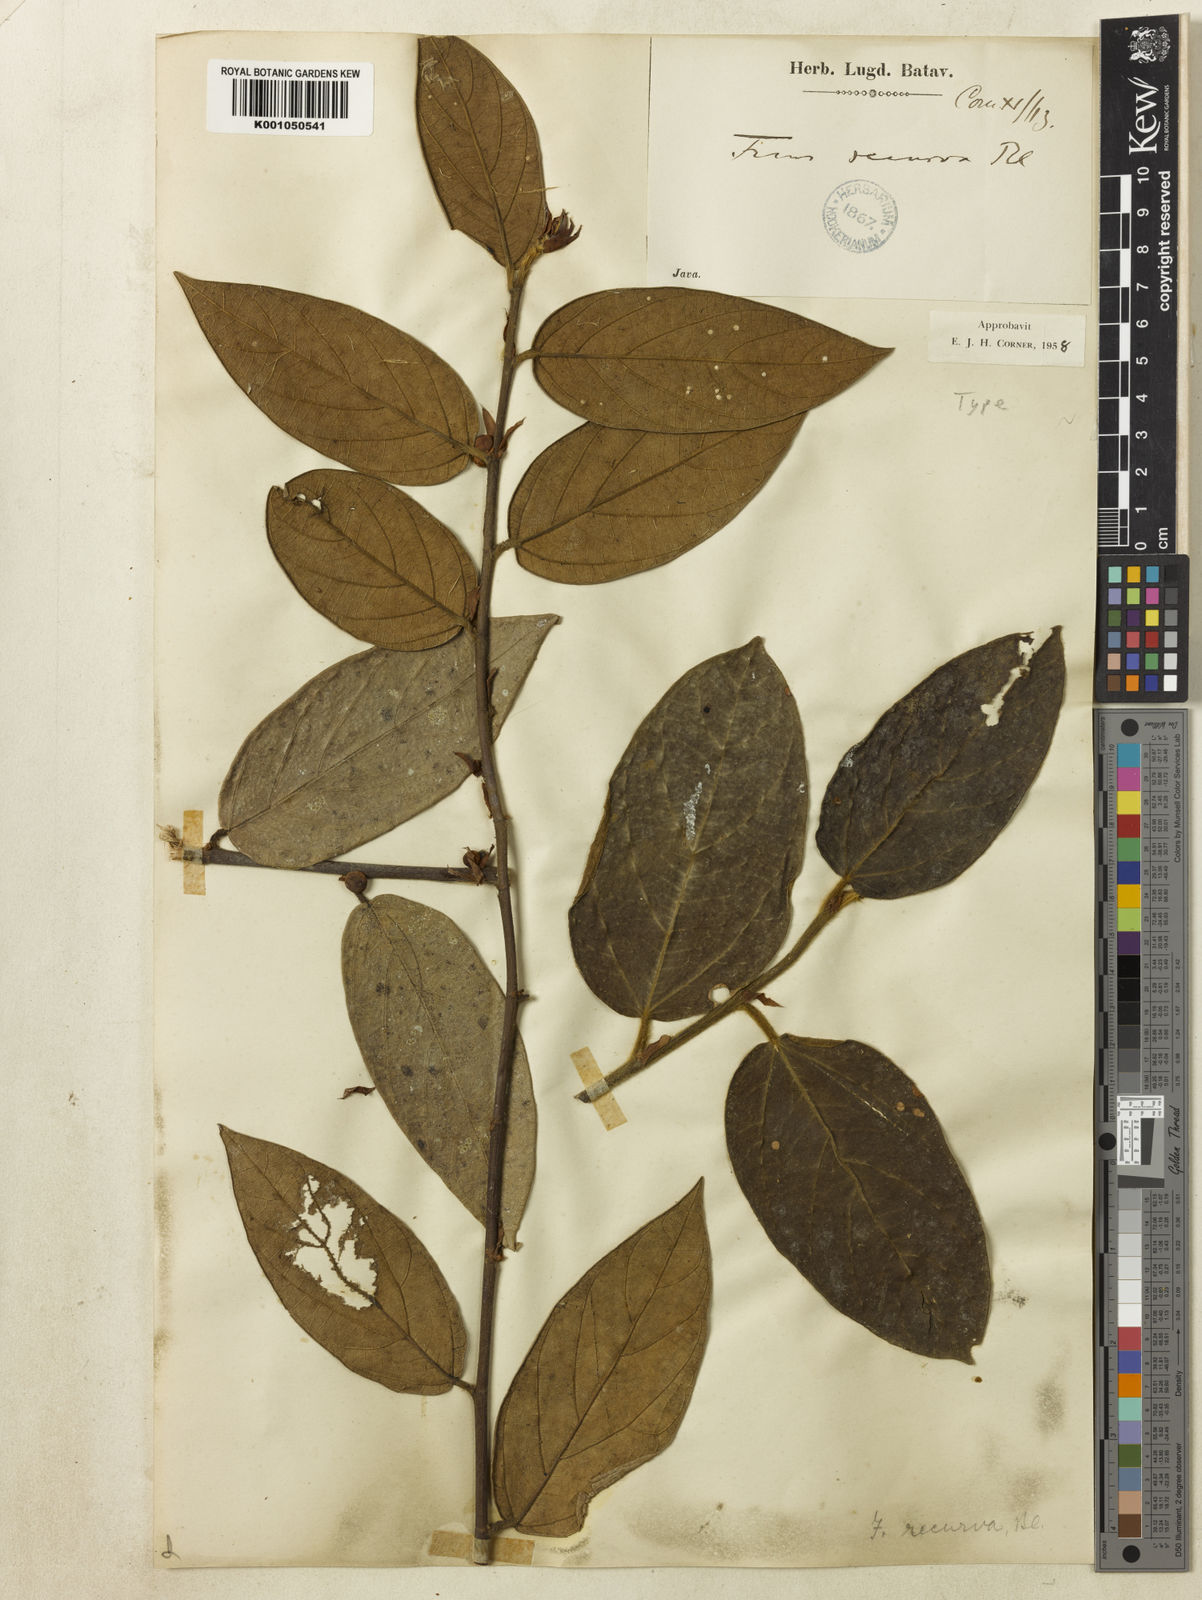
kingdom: Plantae
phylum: Tracheophyta
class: Magnoliopsida
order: Rosales
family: Moraceae
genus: Ficus
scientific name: Ficus recurva
